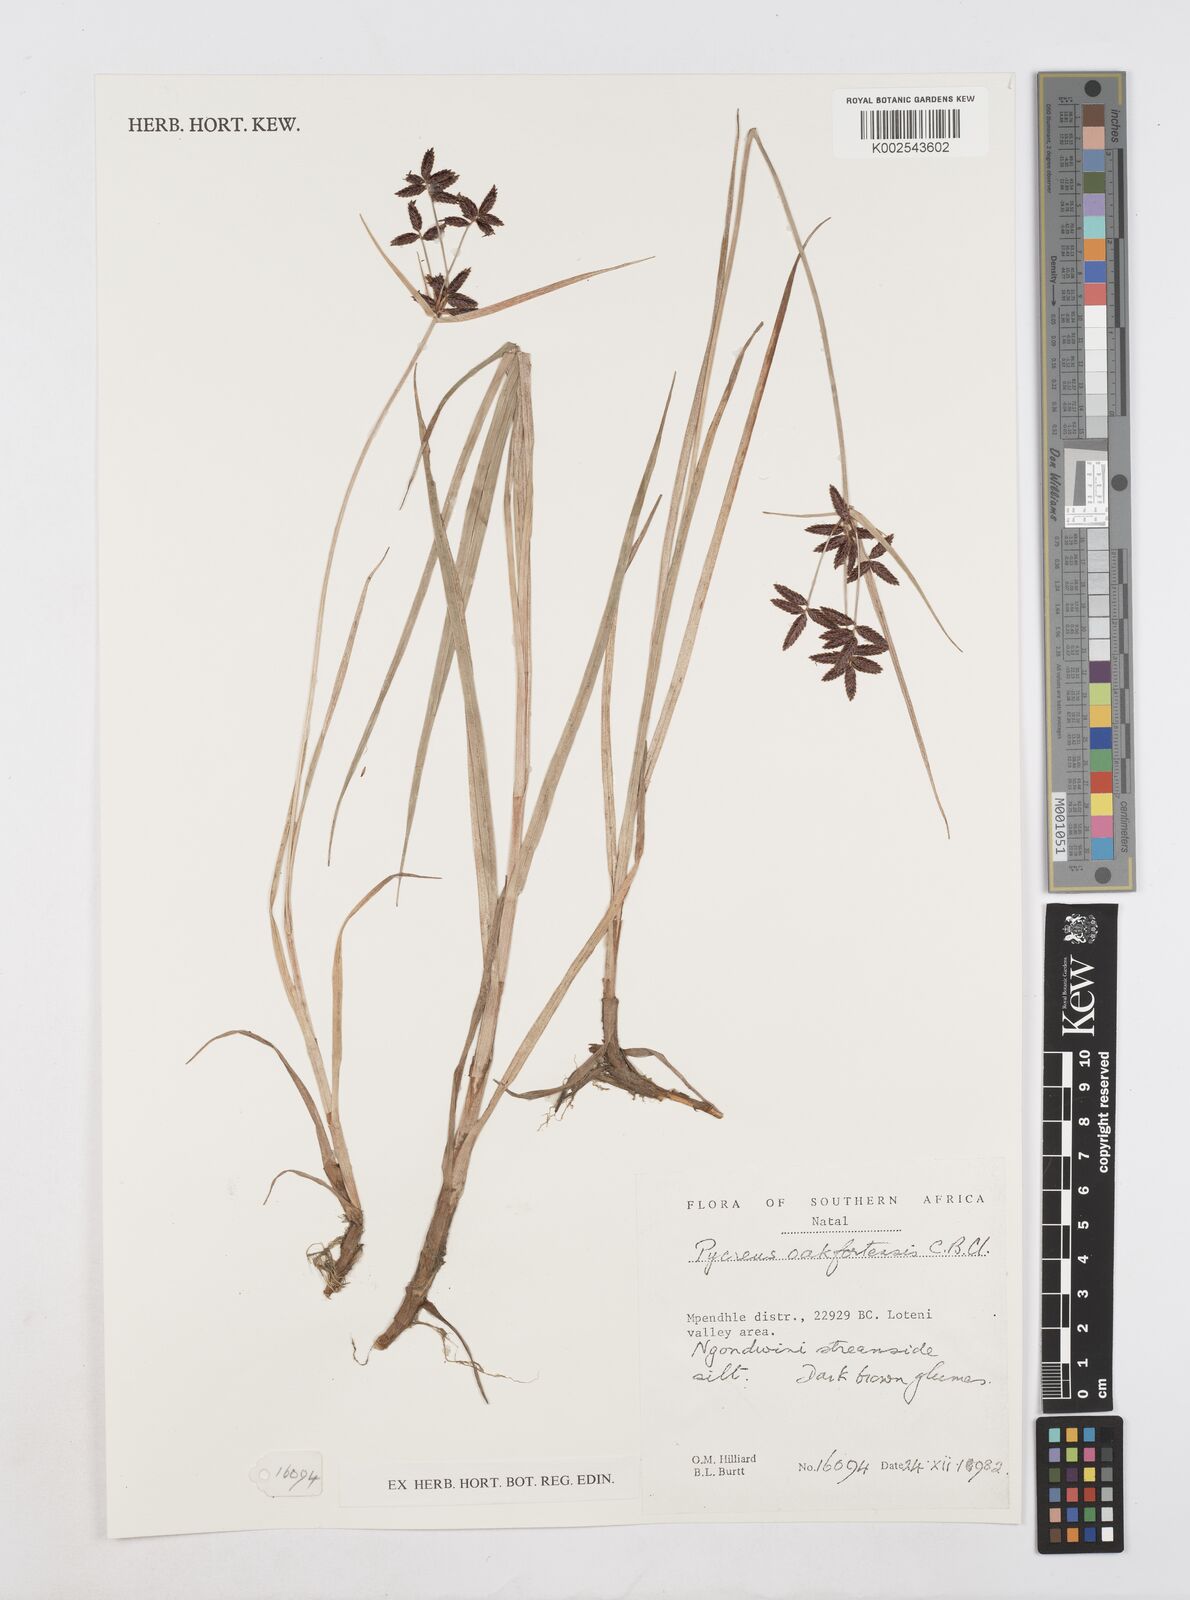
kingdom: Plantae
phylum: Tracheophyta
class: Liliopsida
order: Poales
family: Cyperaceae
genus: Cyperus
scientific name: Cyperus oakfortensis
